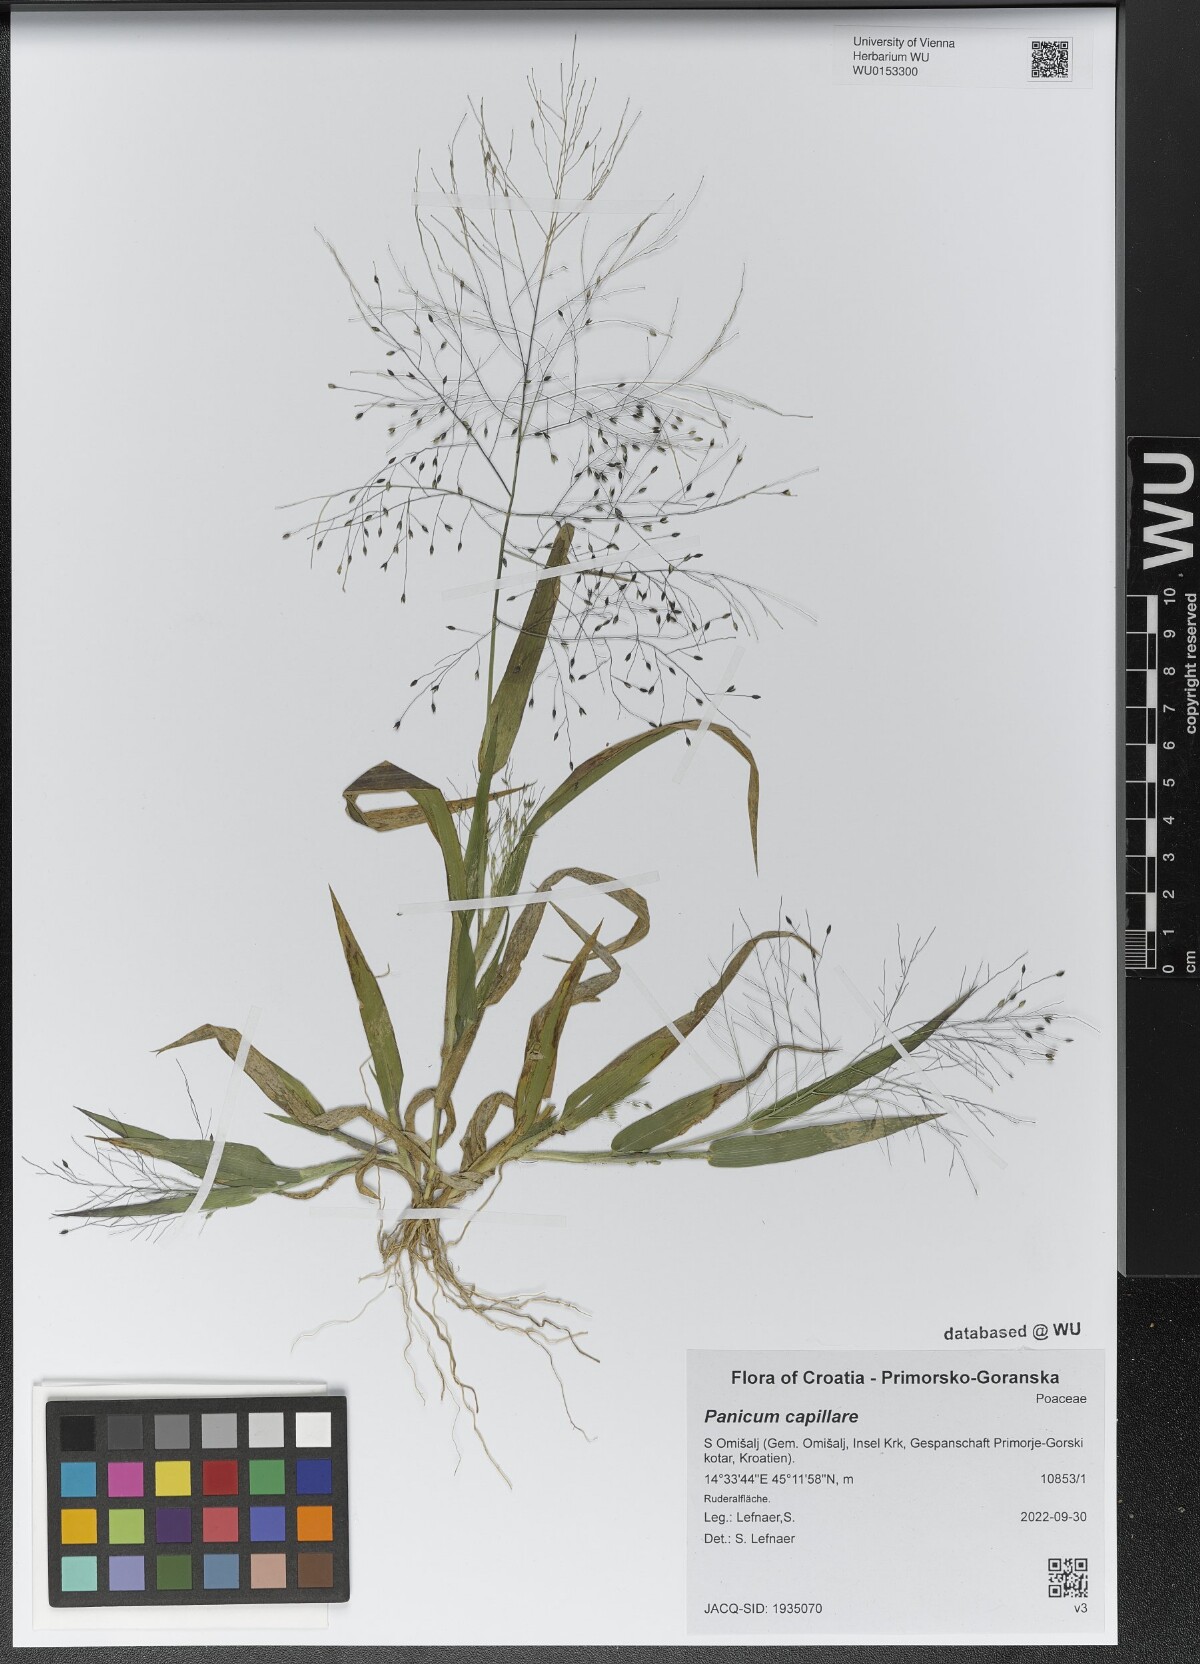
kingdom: Plantae
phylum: Tracheophyta
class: Liliopsida
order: Poales
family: Poaceae
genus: Panicum
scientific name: Panicum capillare
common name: Witch-grass
